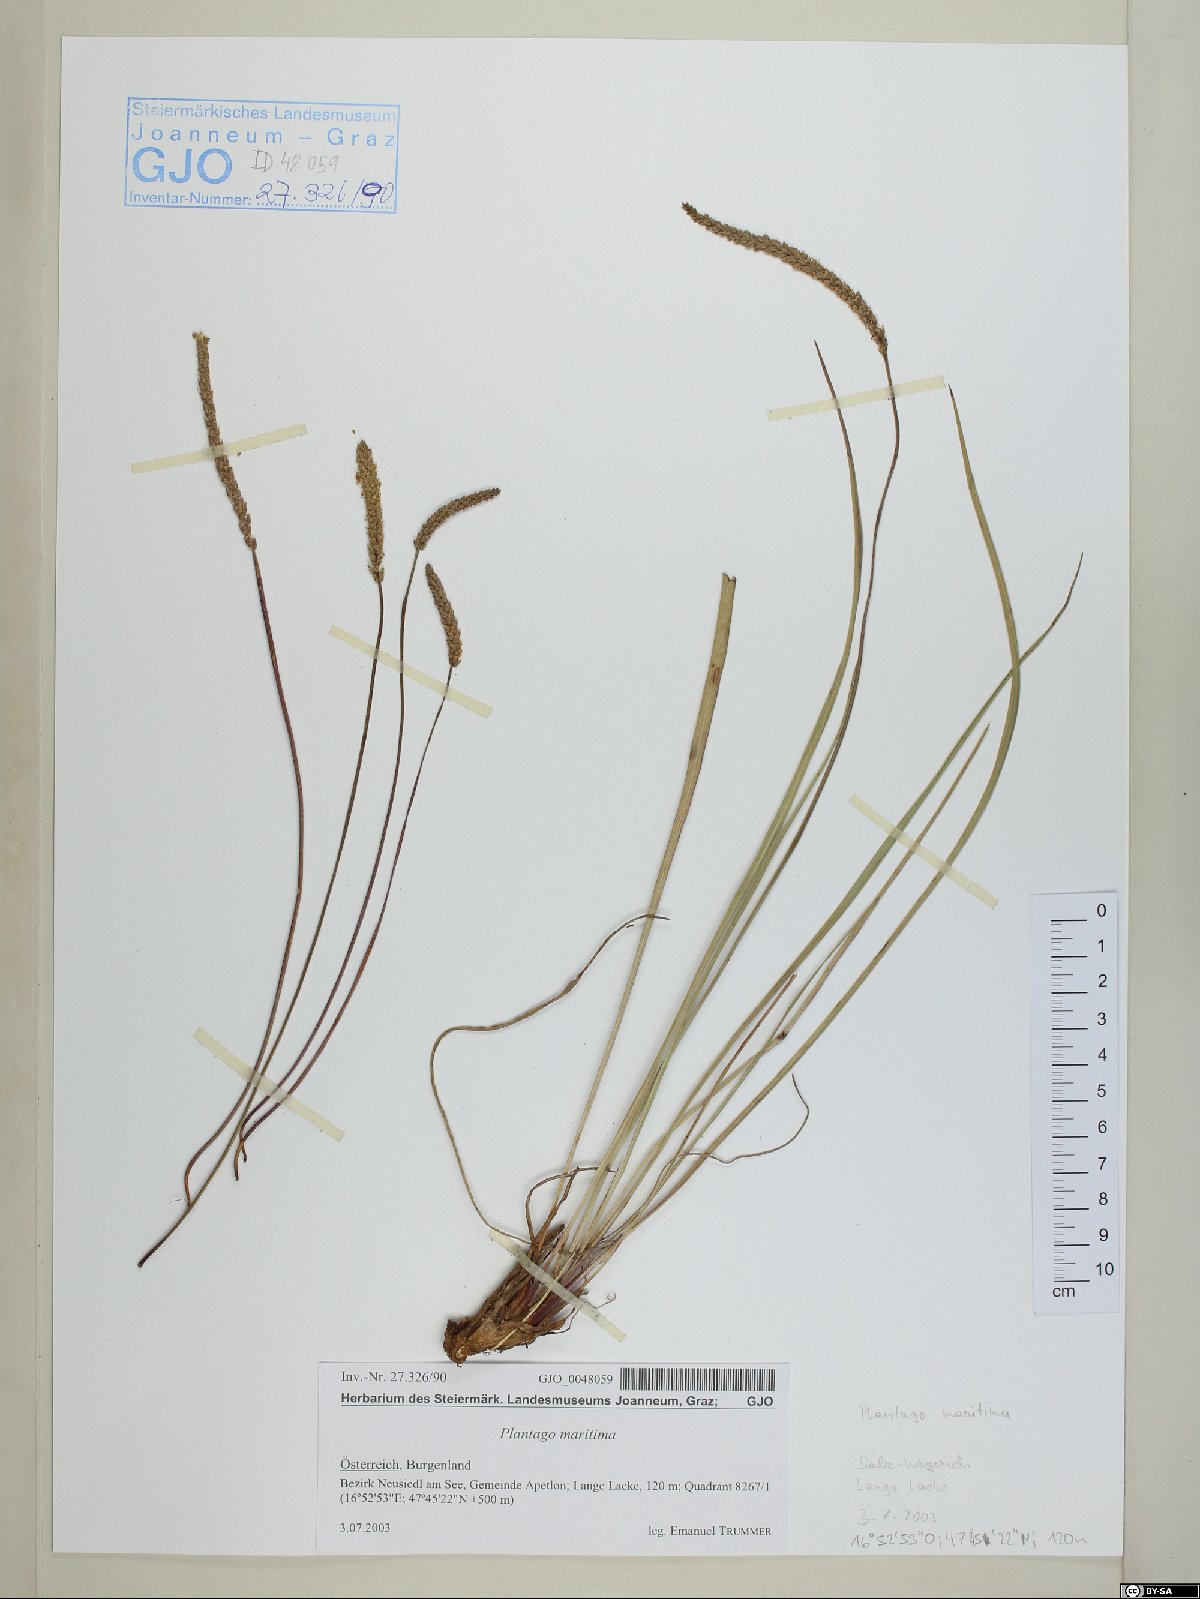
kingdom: Plantae
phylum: Tracheophyta
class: Magnoliopsida
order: Lamiales
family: Plantaginaceae
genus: Plantago
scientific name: Plantago maritima
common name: Sea plantain
